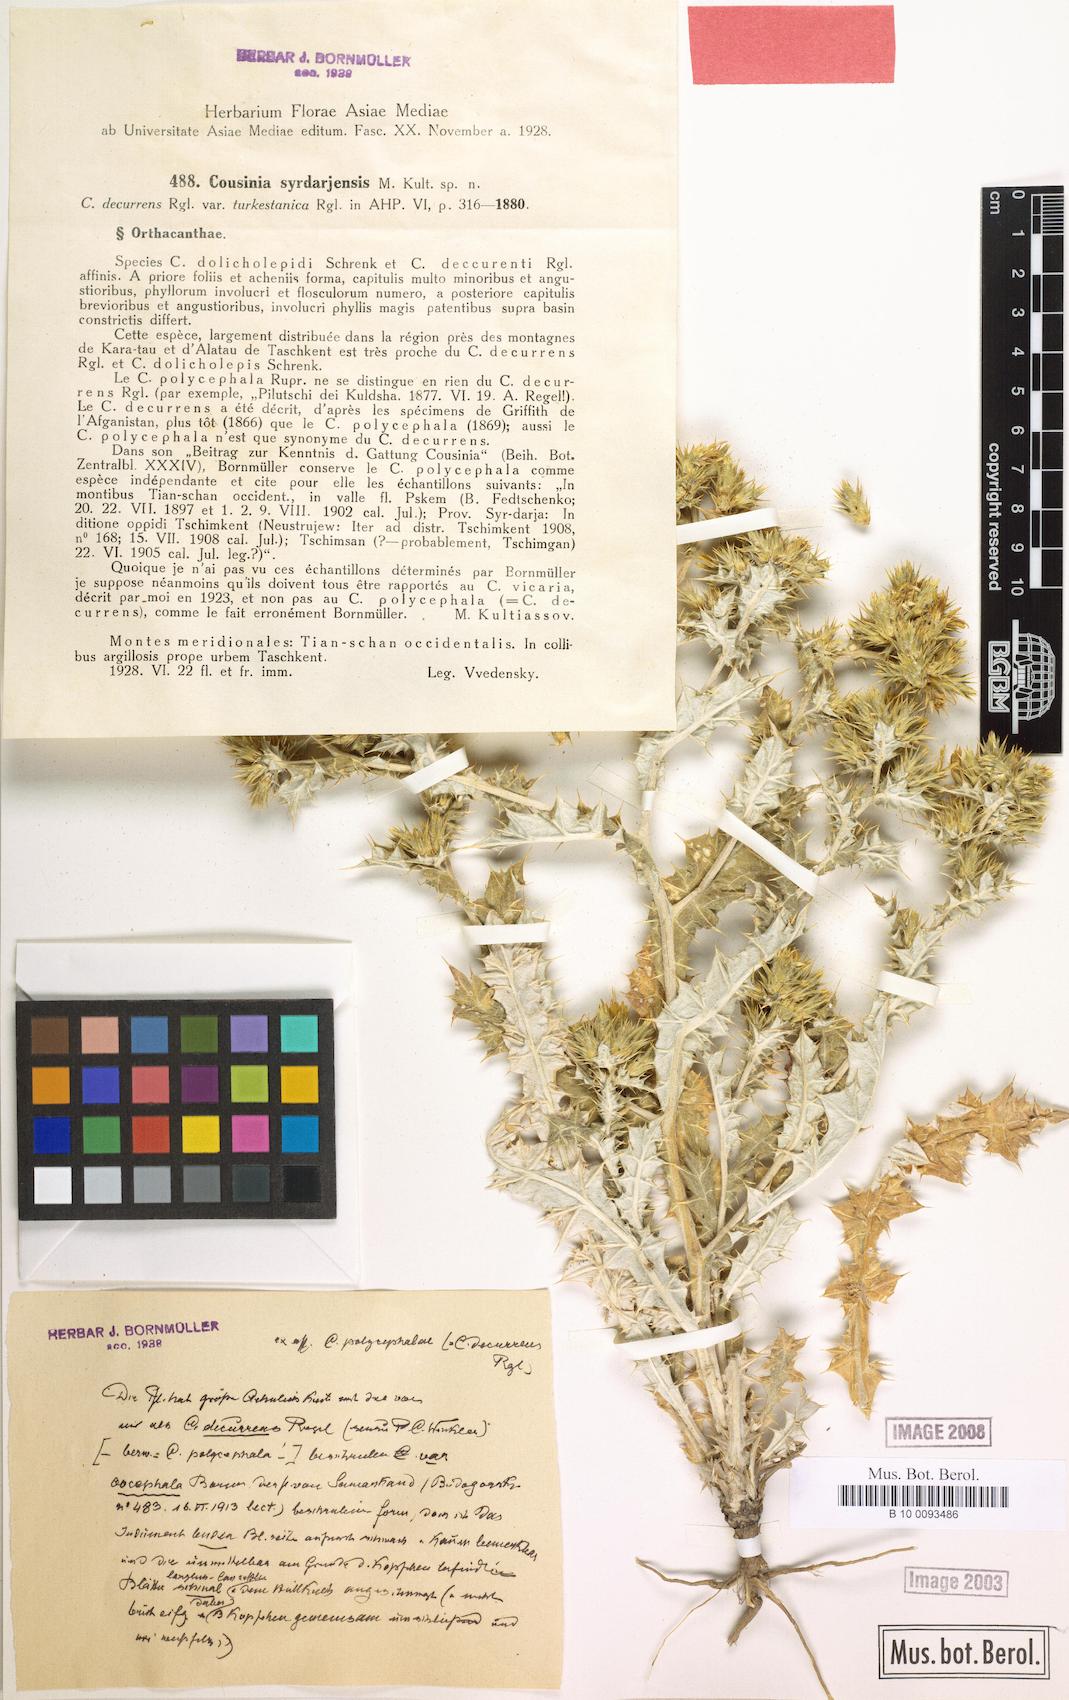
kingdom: Plantae
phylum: Tracheophyta
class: Magnoliopsida
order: Asterales
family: Asteraceae
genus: Cousinia
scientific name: Cousinia turkestanica
